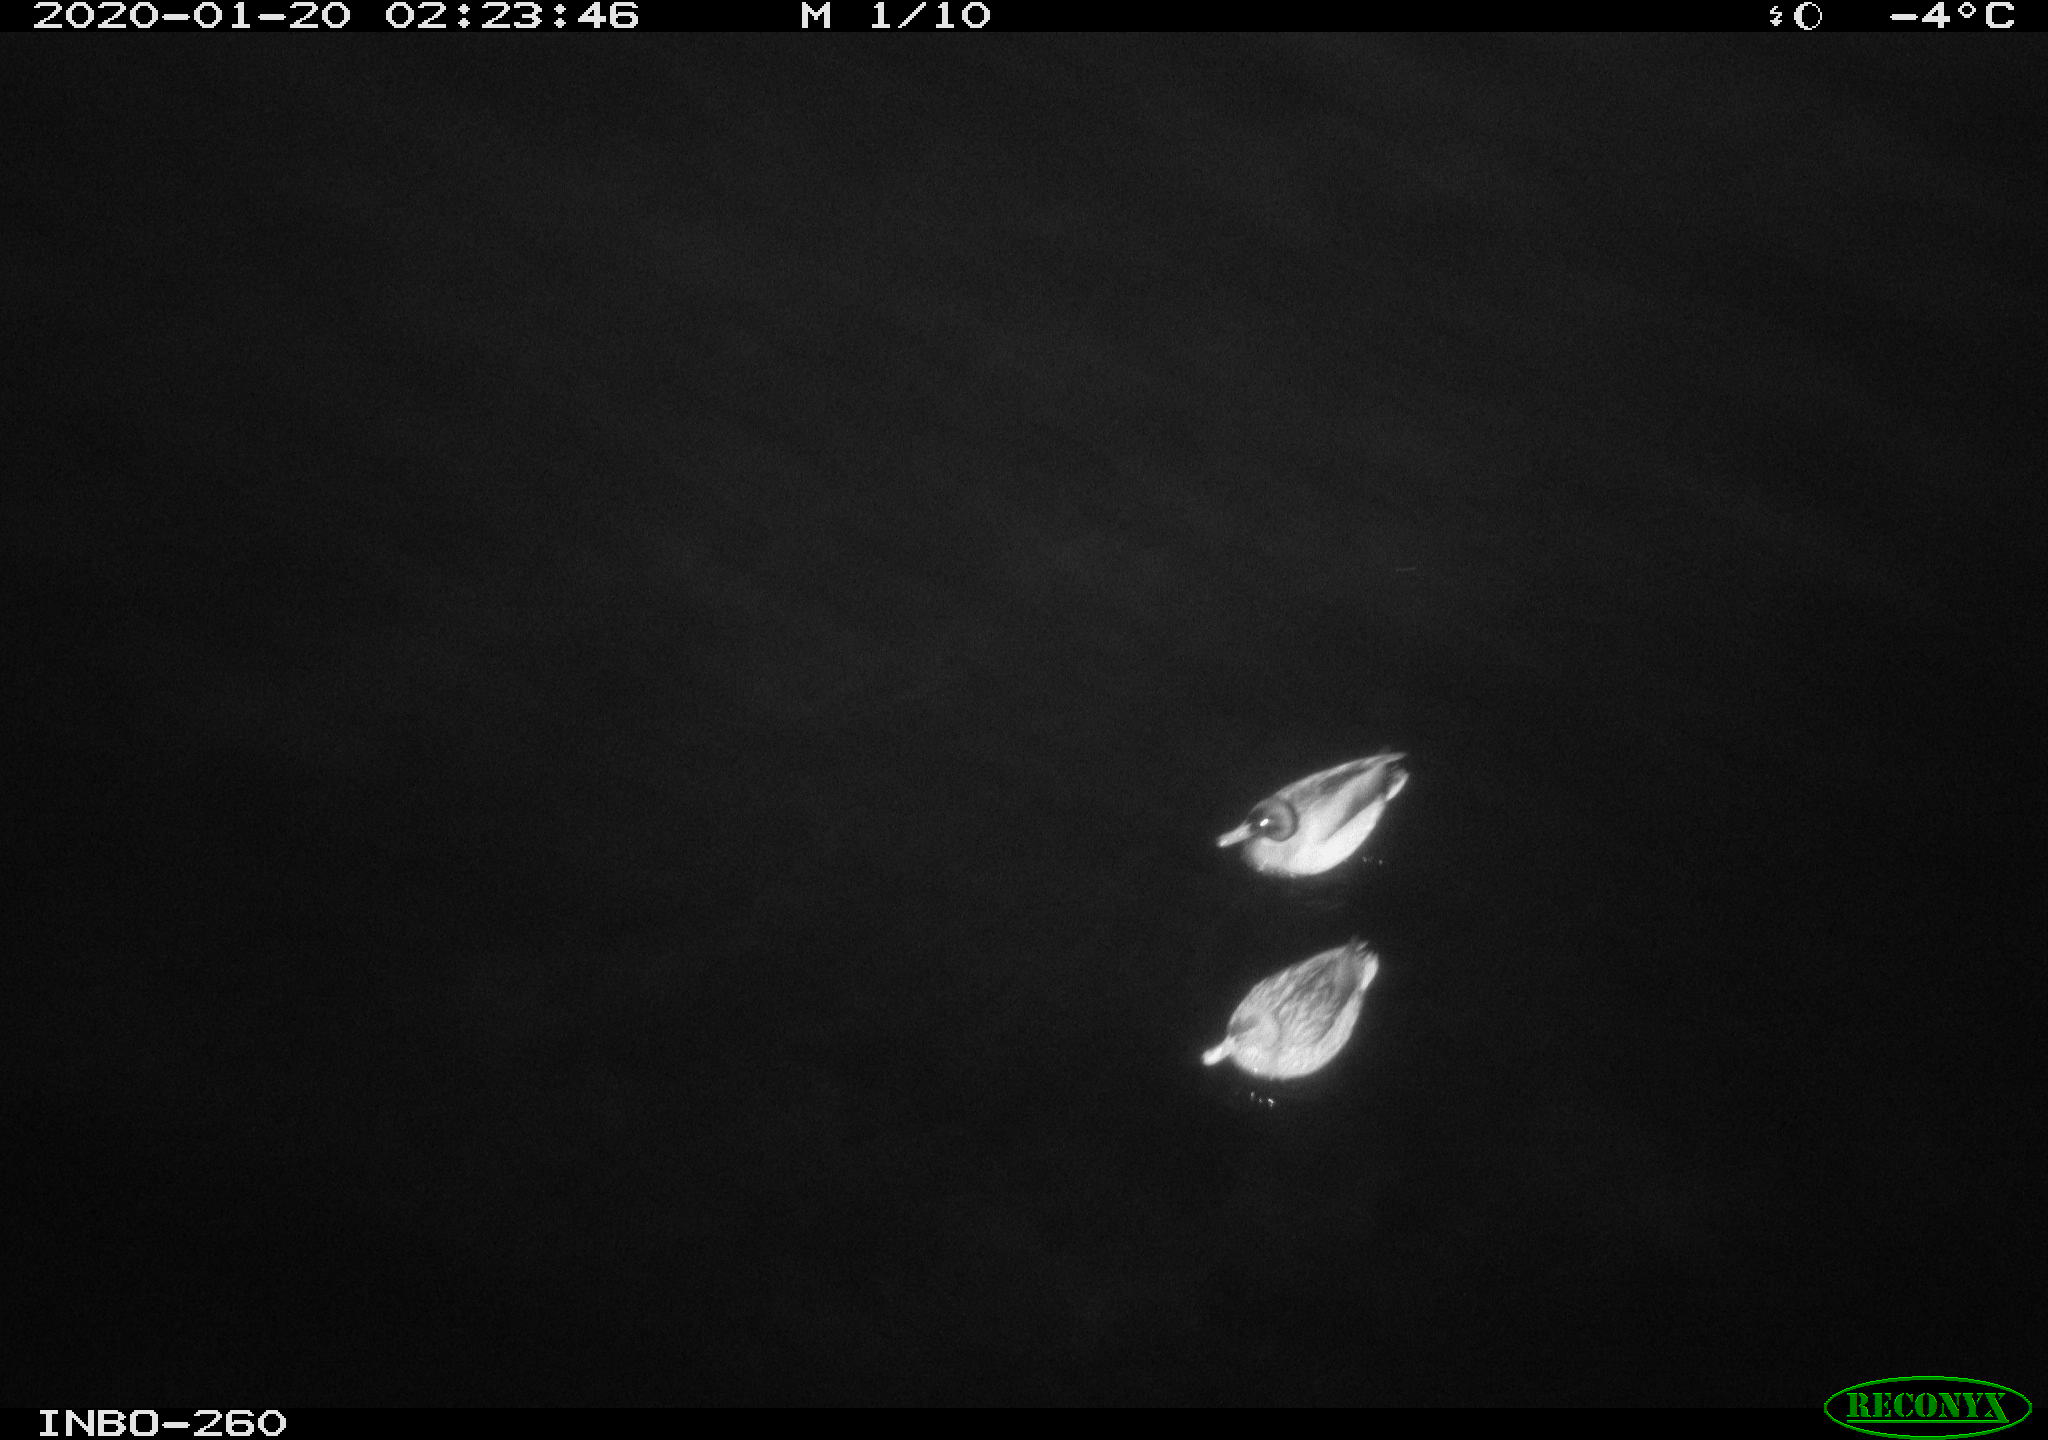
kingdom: Animalia
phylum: Chordata
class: Aves
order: Anseriformes
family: Anatidae
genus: Anas
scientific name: Anas platyrhynchos
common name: Mallard
